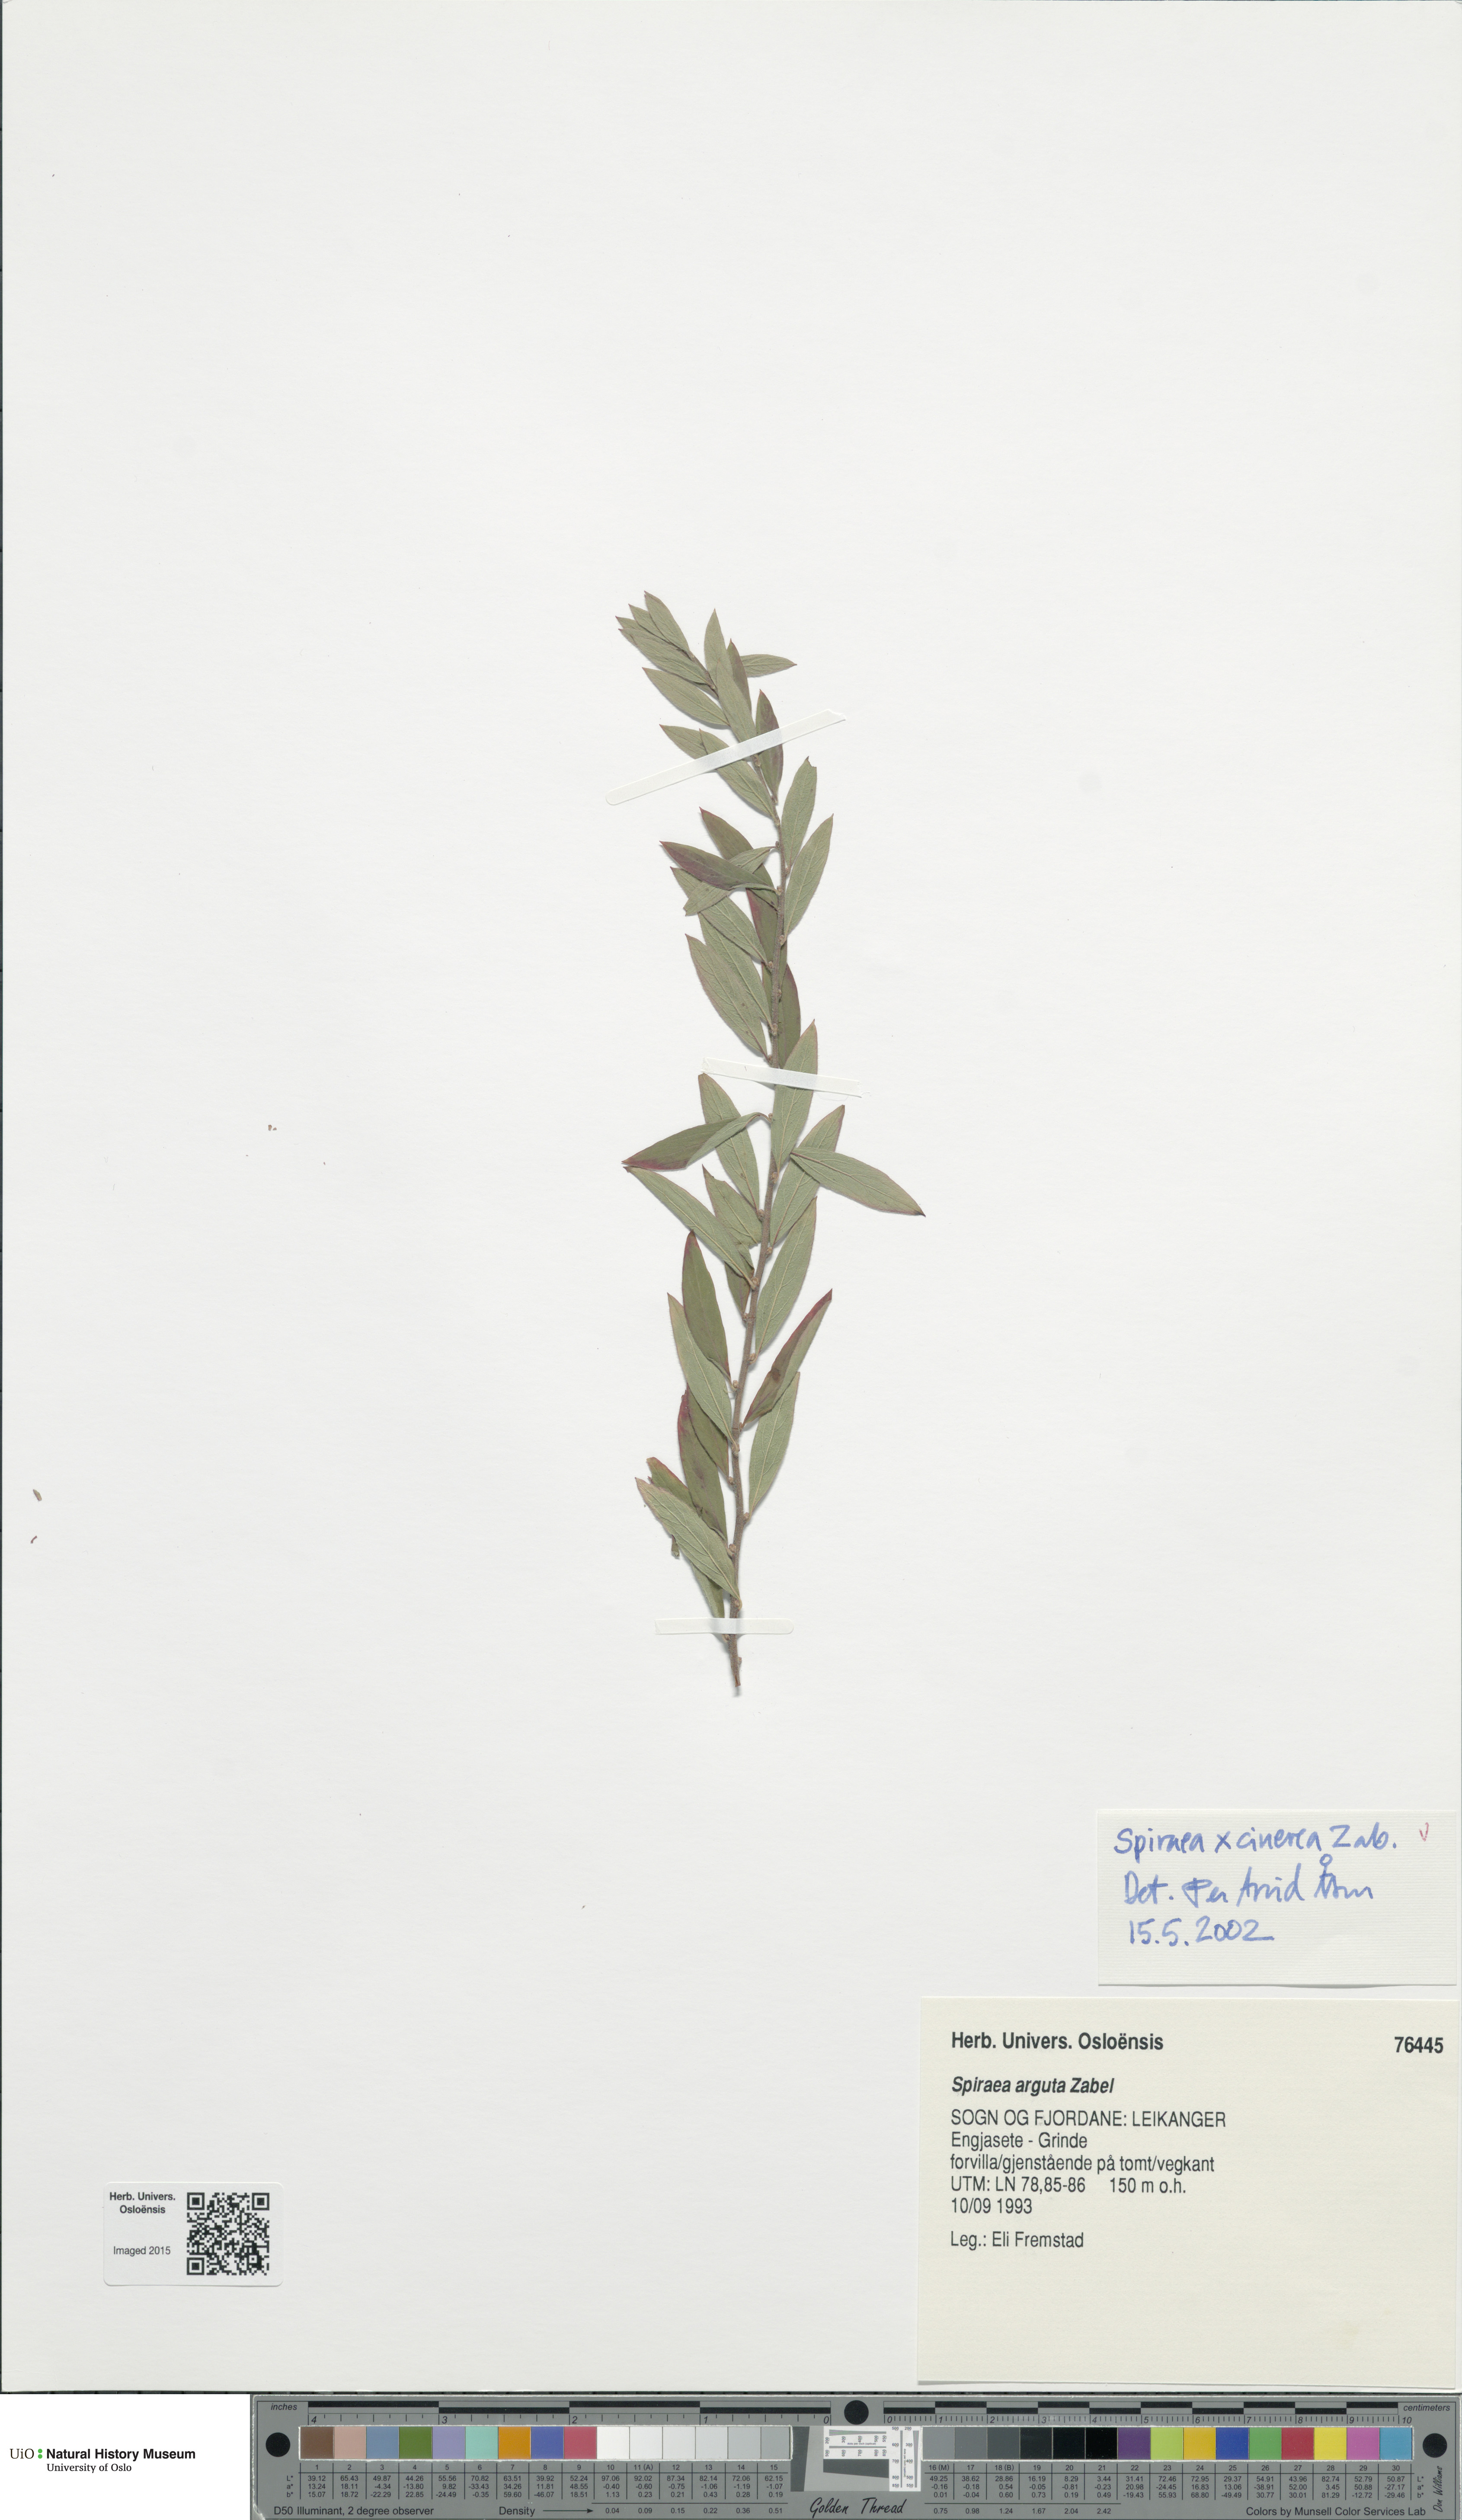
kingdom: Plantae
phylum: Tracheophyta
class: Magnoliopsida
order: Rosales
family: Rosaceae
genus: Spiraea
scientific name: Spiraea cinerea
